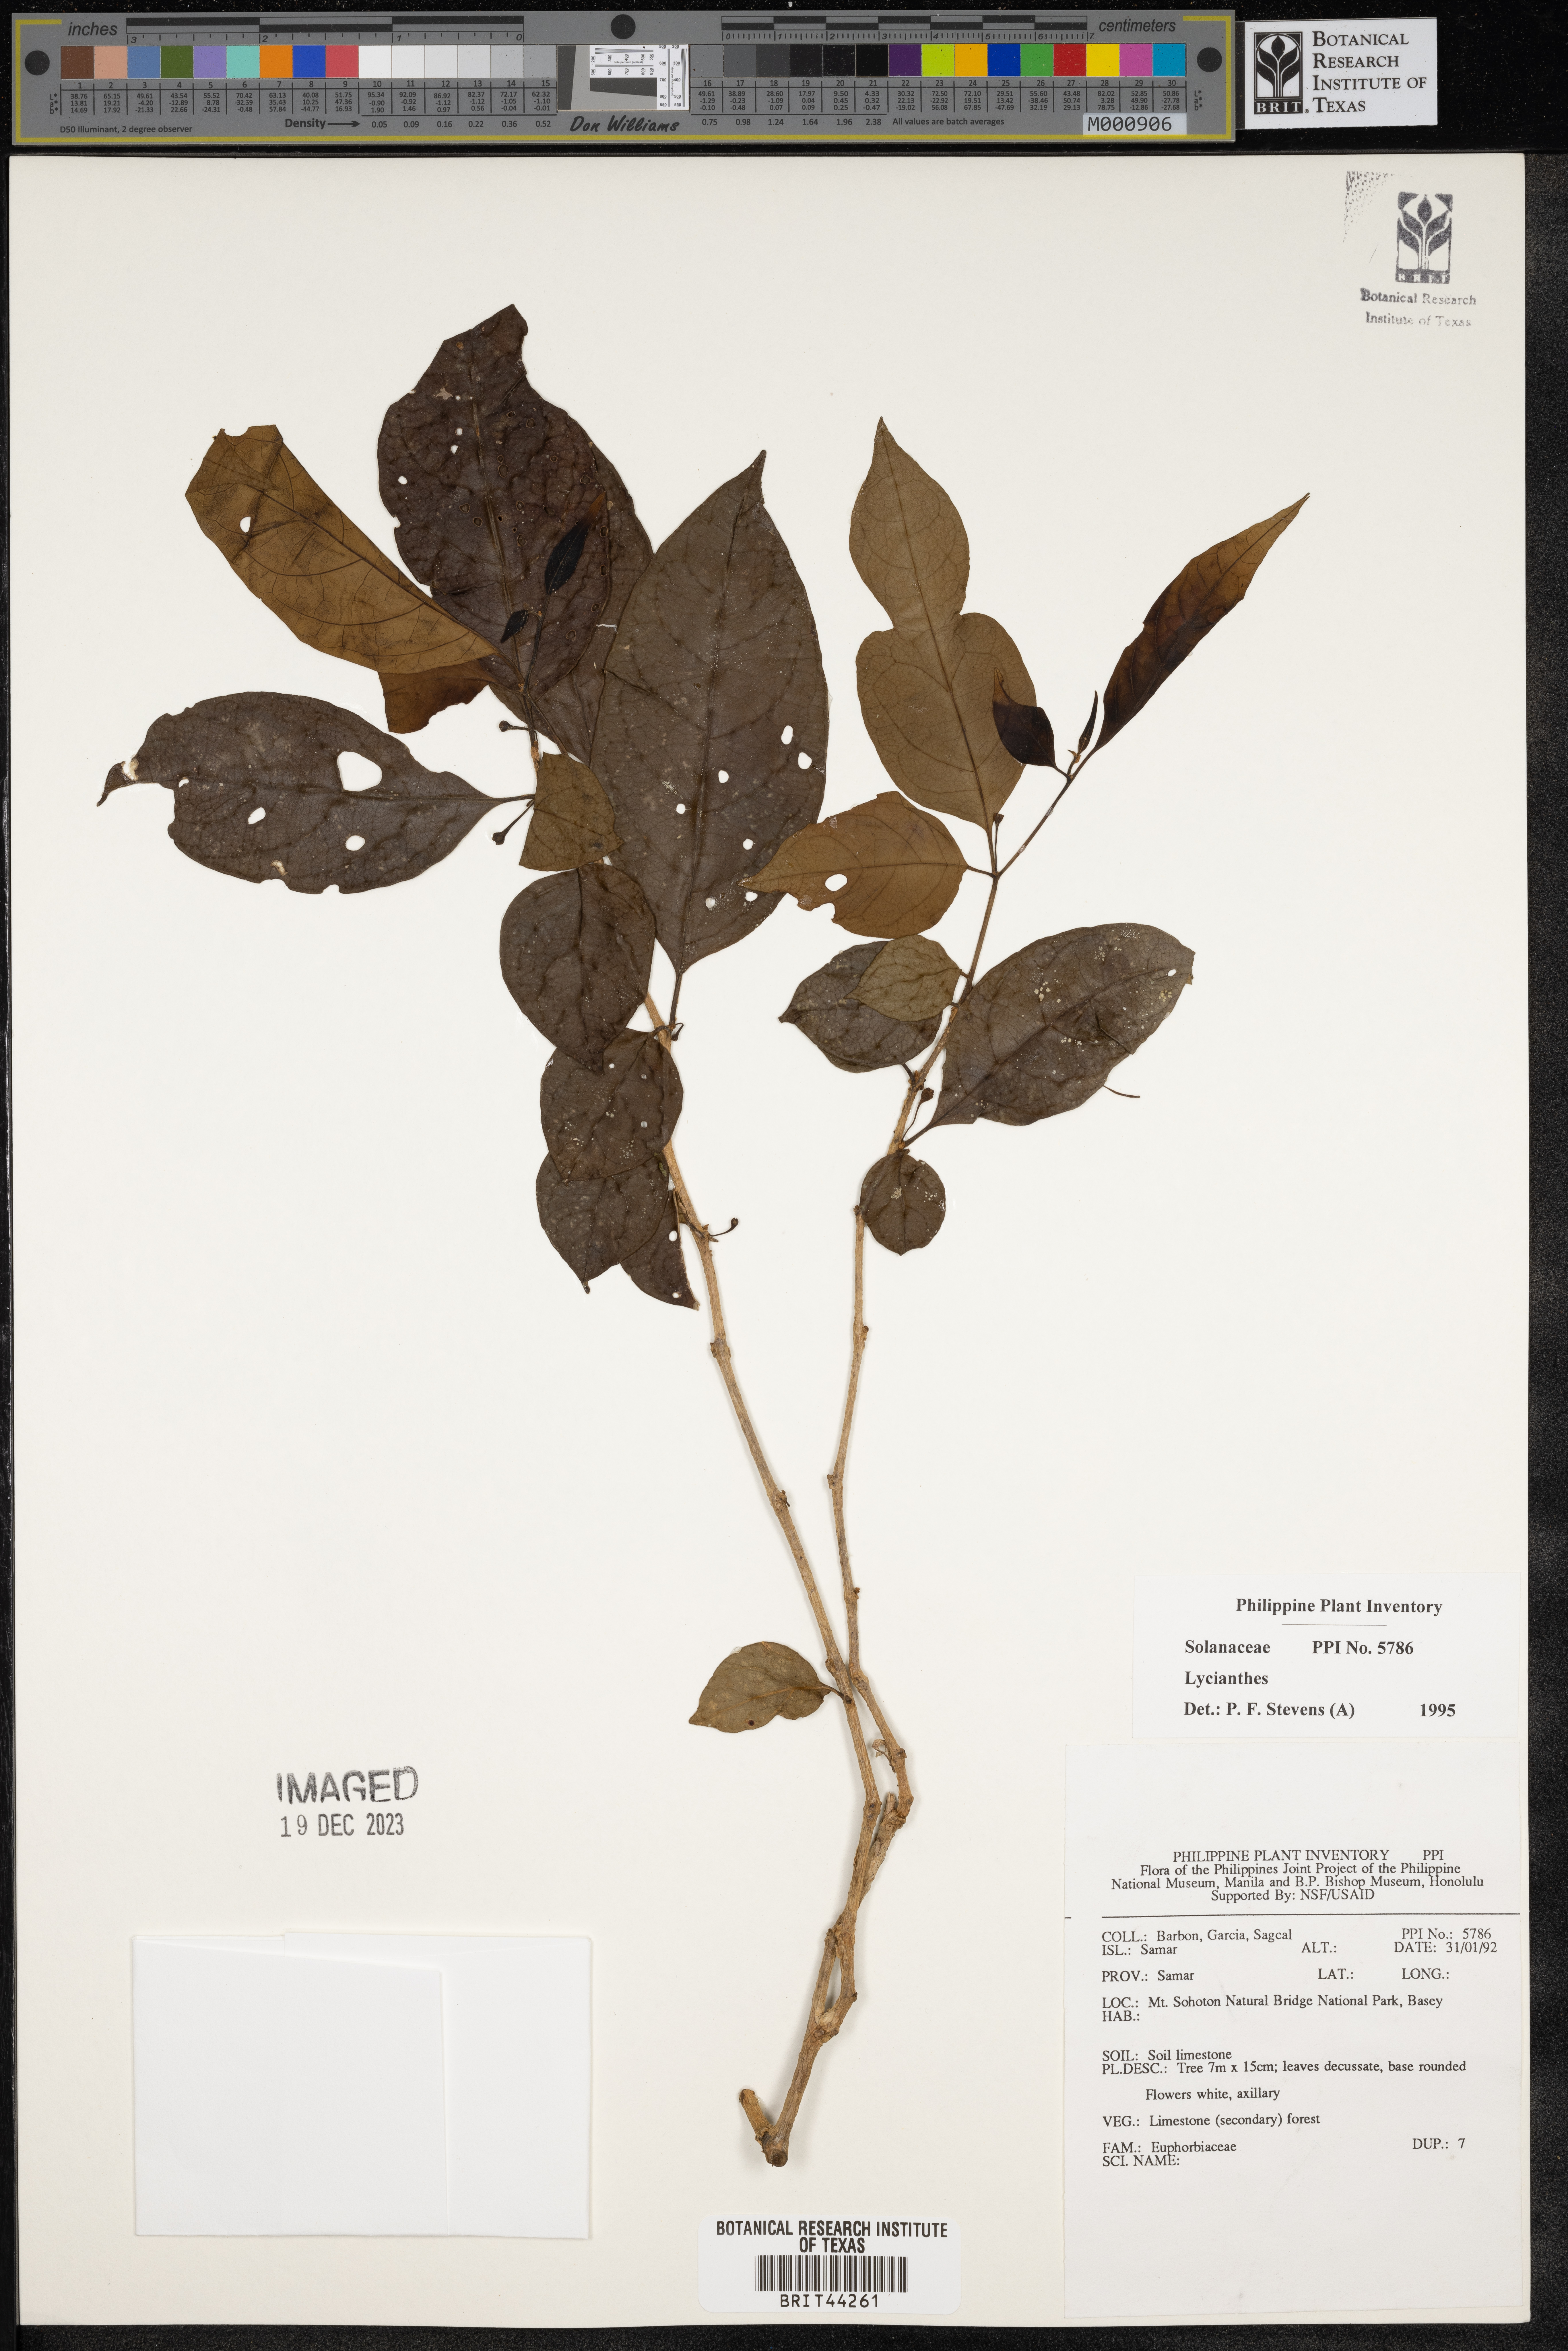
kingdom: Plantae
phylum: Tracheophyta
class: Magnoliopsida
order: Solanales
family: Solanaceae
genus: Lycianthes
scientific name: Lycianthes
